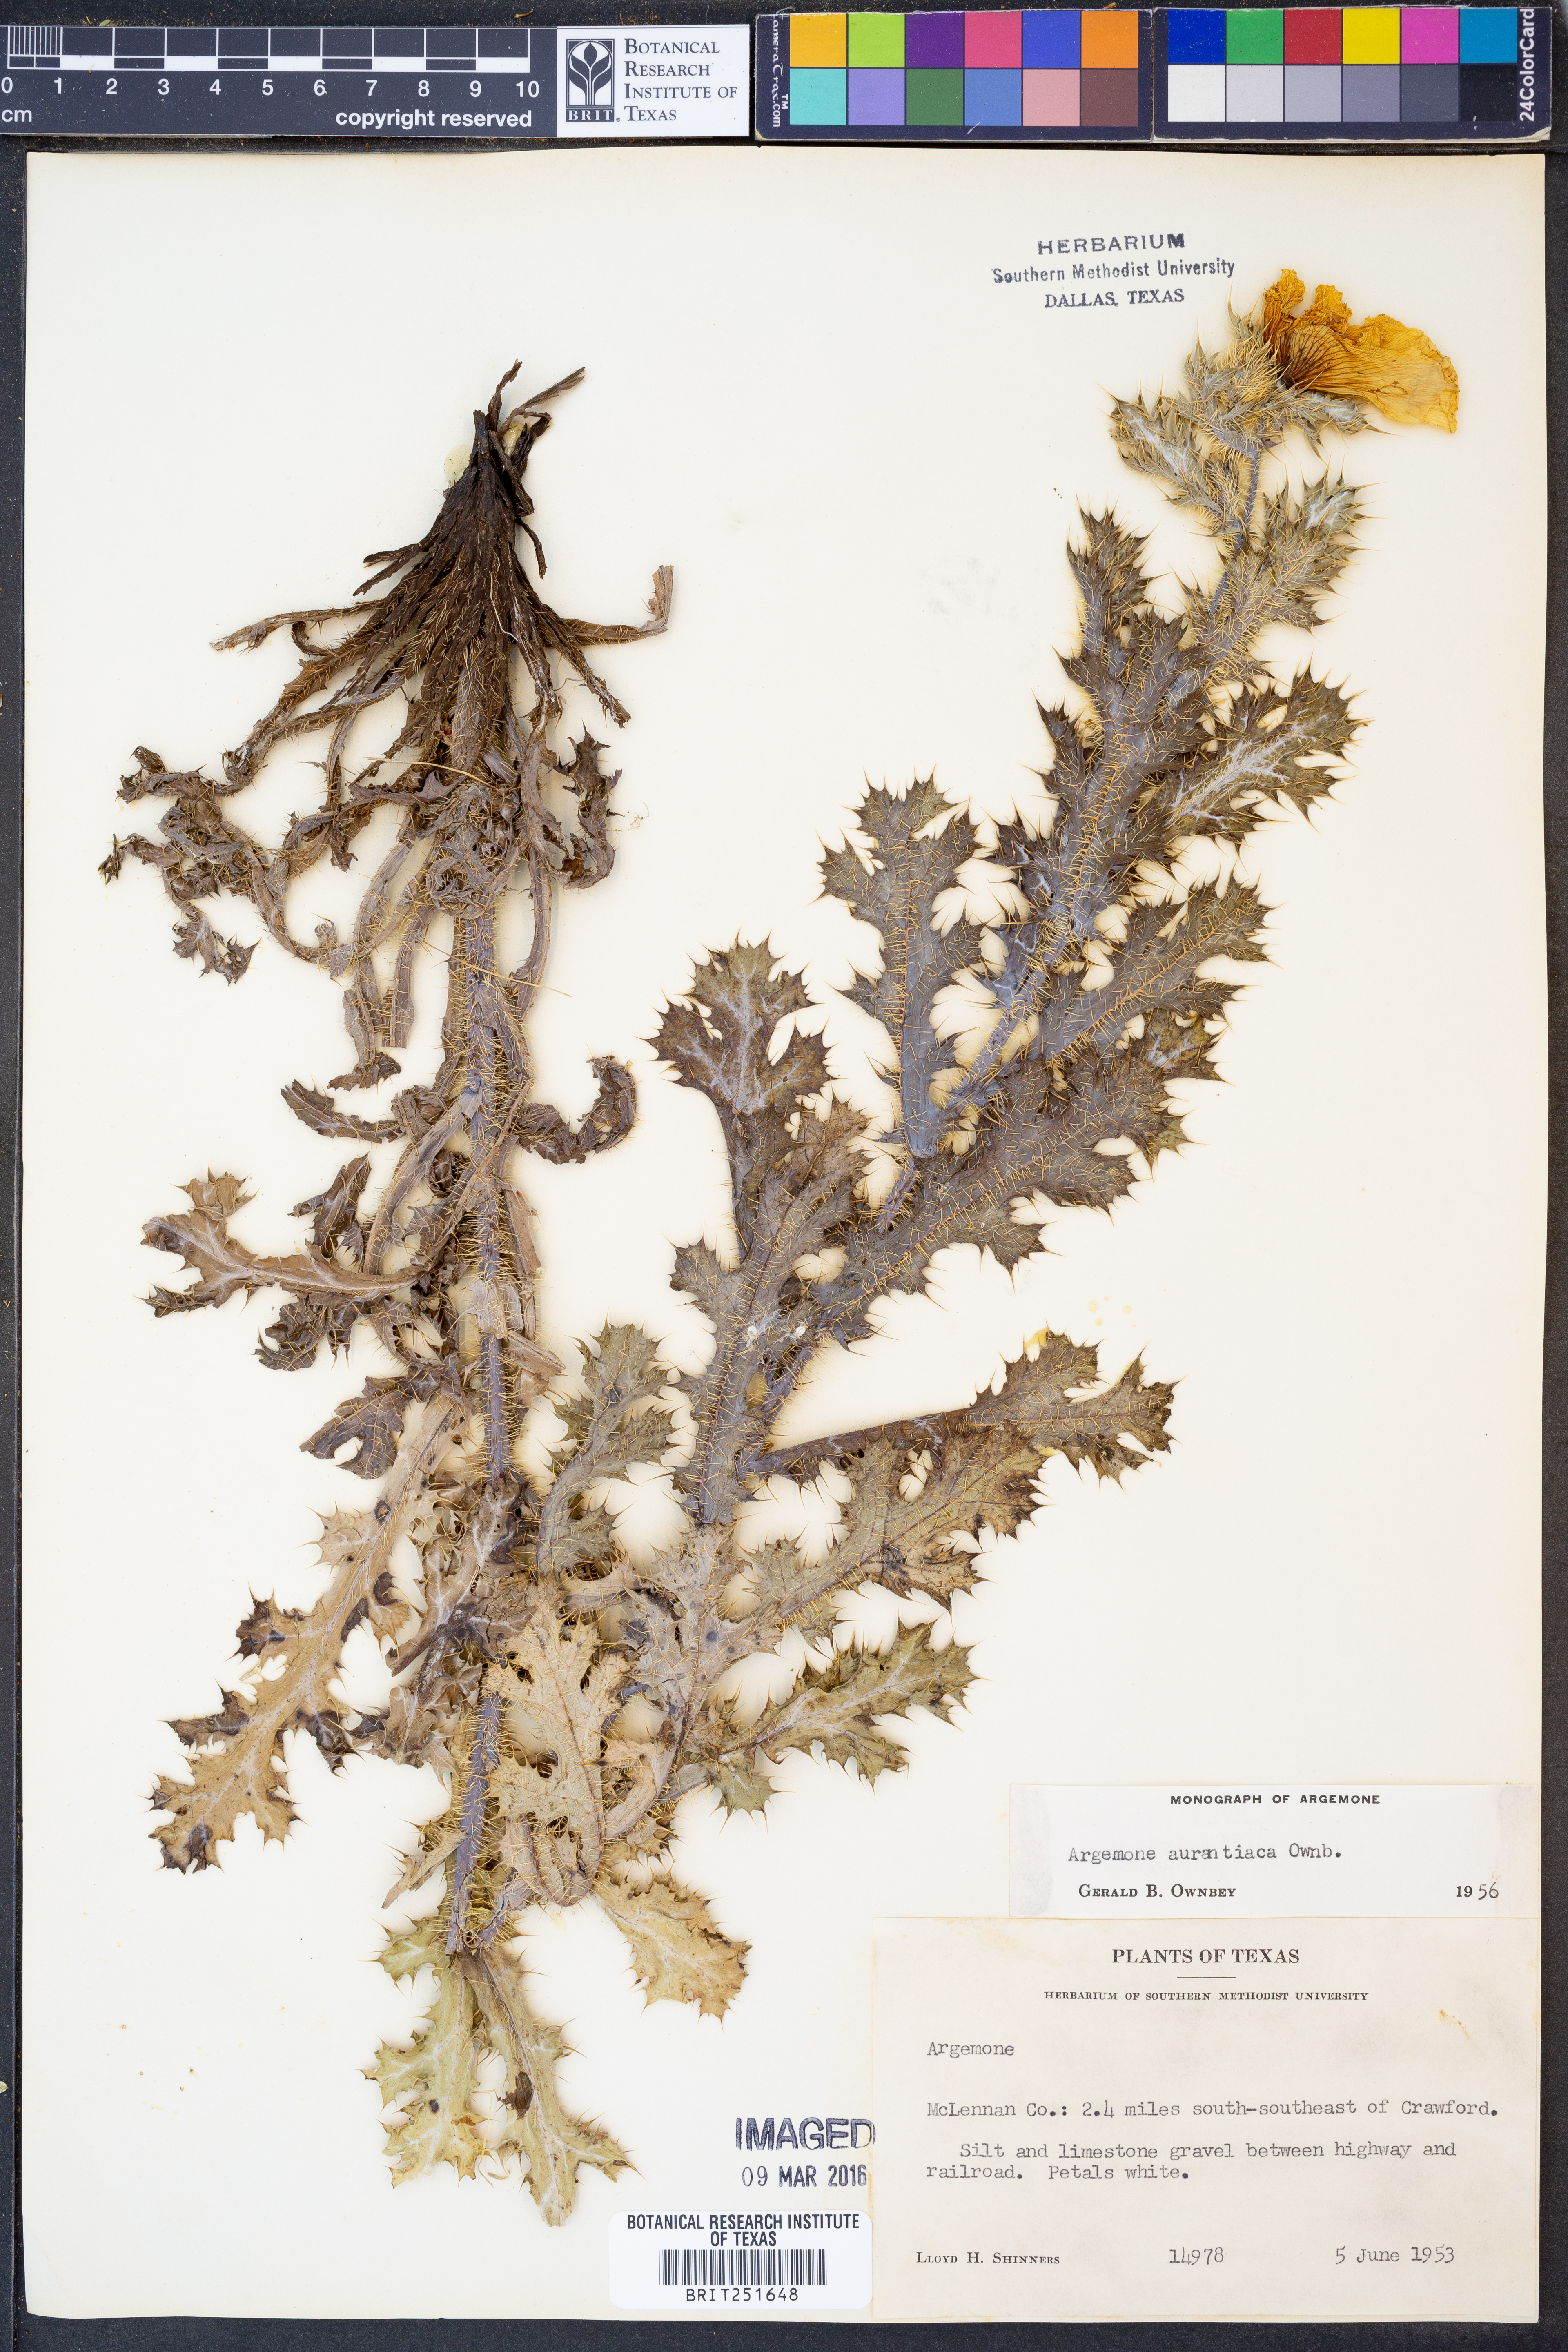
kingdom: Plantae
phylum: Tracheophyta
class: Magnoliopsida
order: Ranunculales
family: Papaveraceae
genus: Argemone
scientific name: Argemone aurantiaca
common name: Texas prickly-poppy
